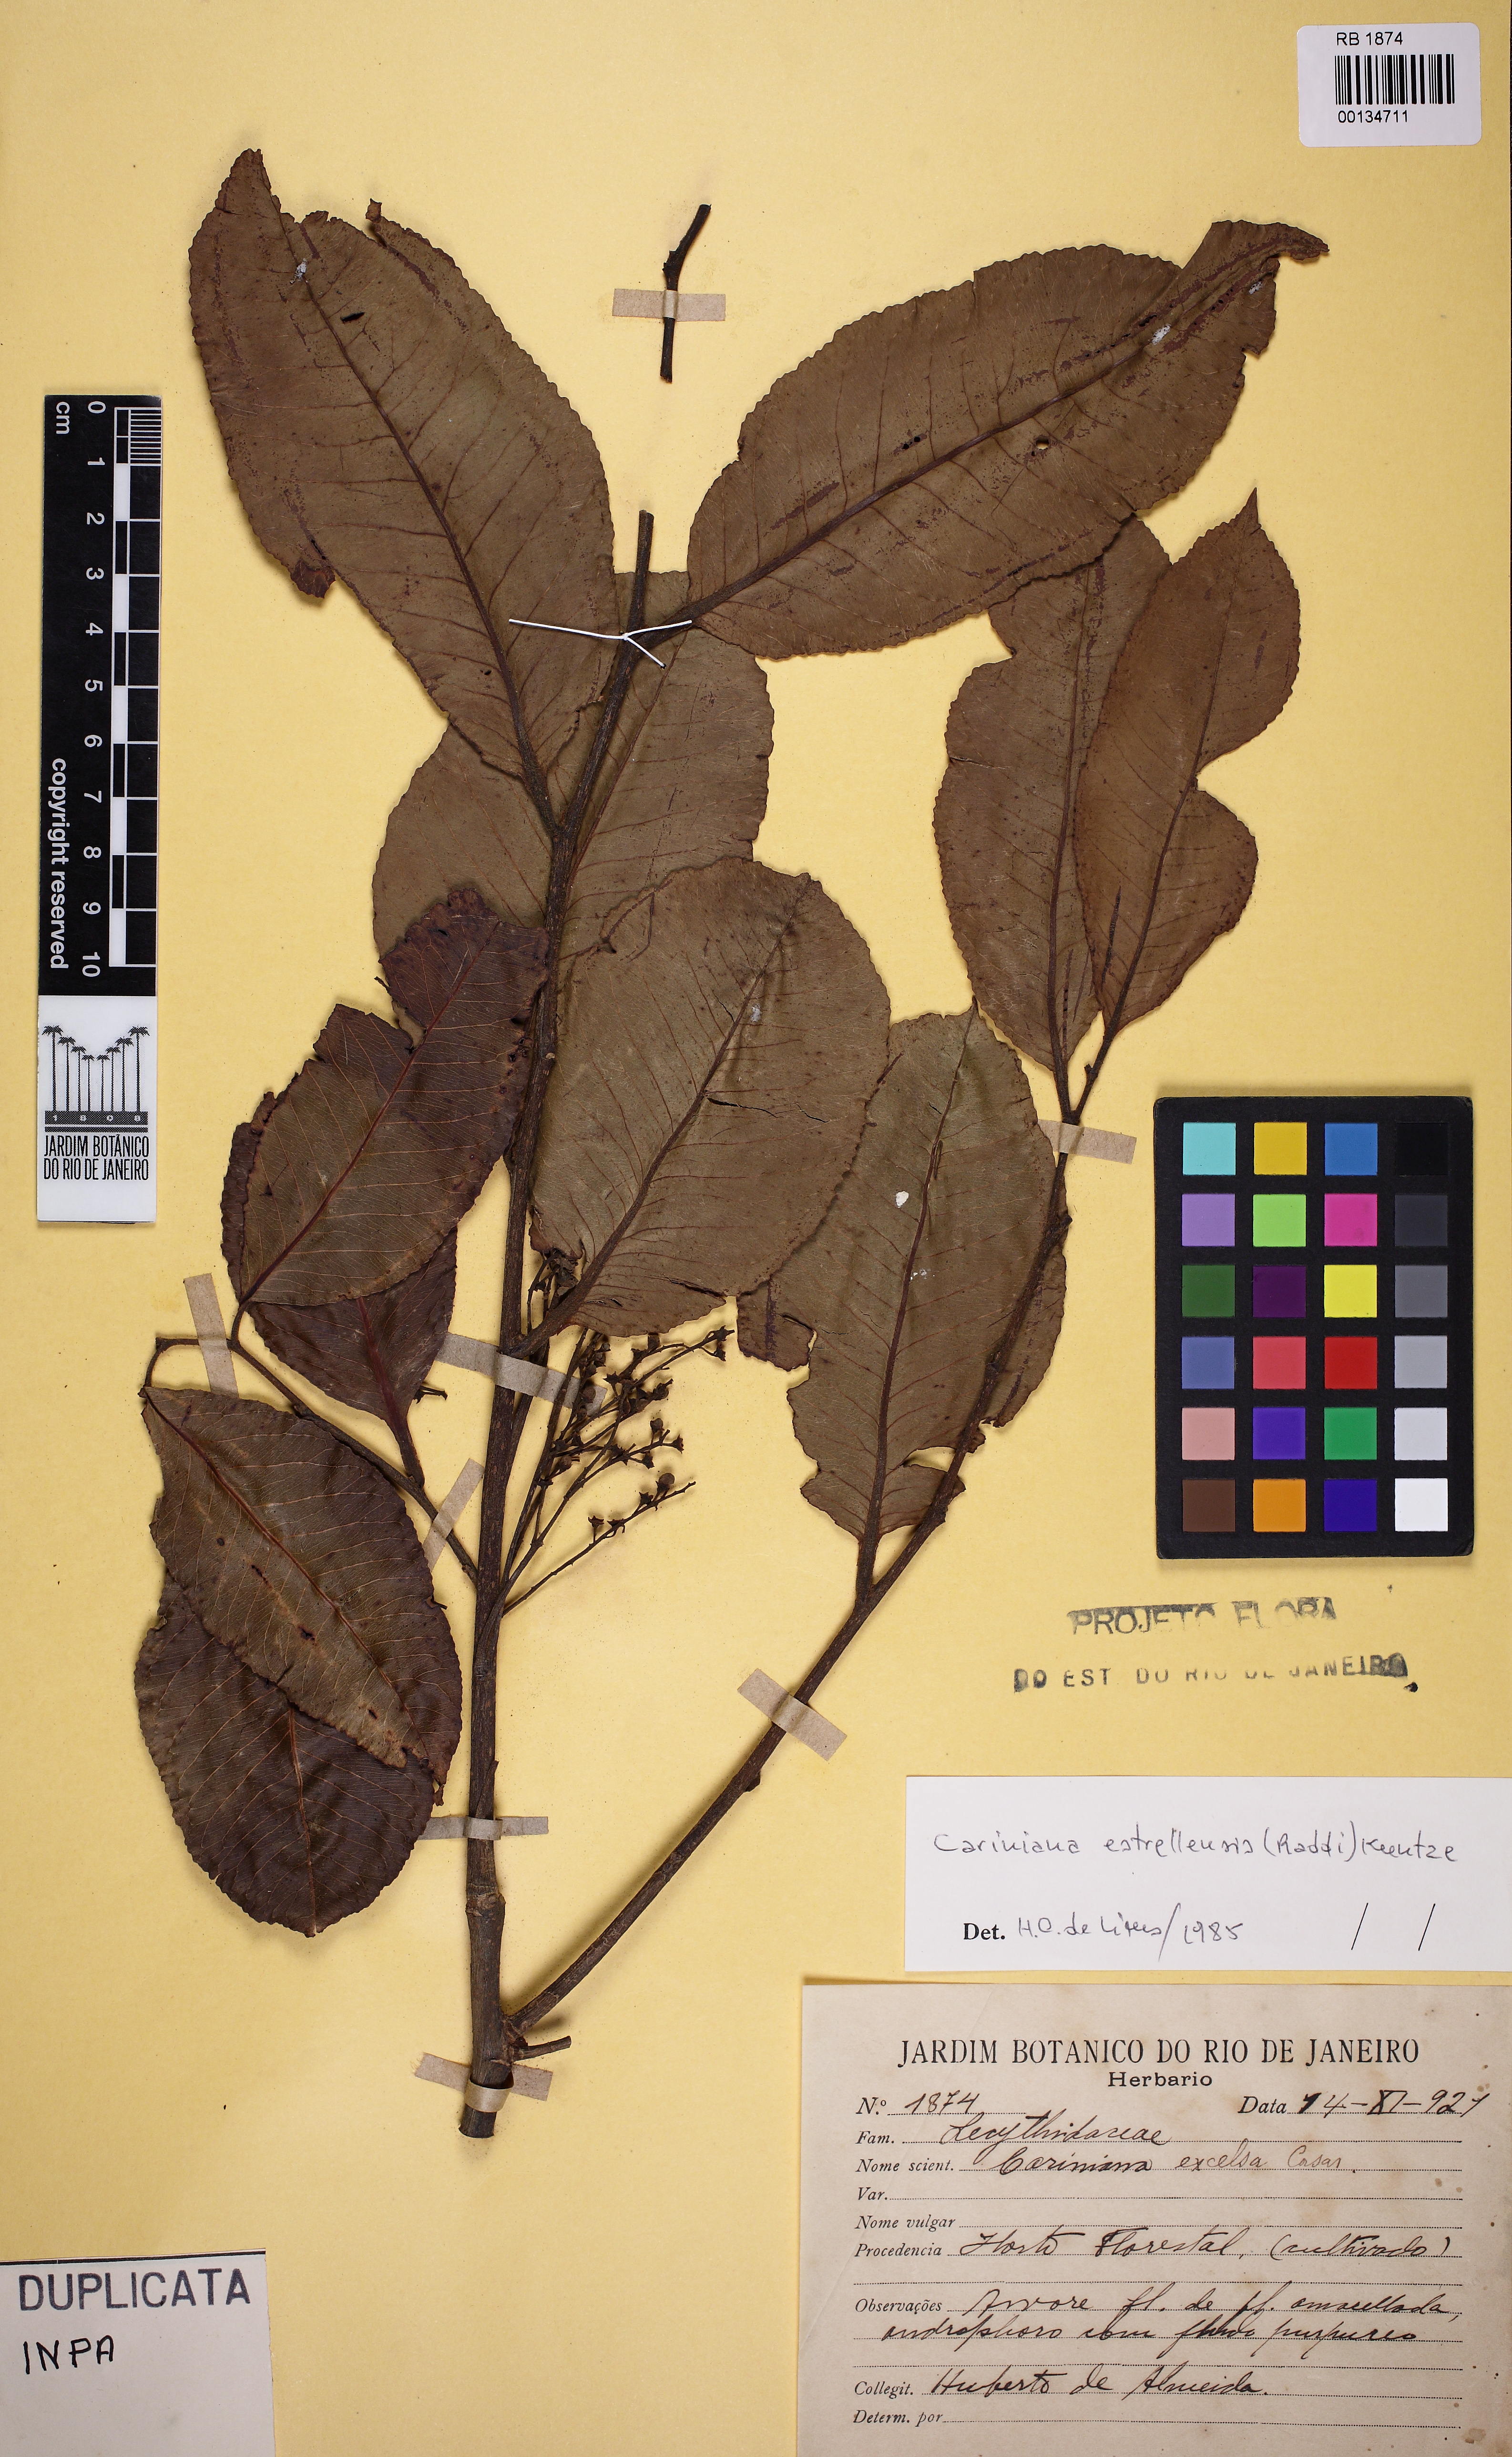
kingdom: Plantae
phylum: Tracheophyta
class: Magnoliopsida
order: Ericales
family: Lecythidaceae
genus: Cariniana
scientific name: Cariniana estrellensis
